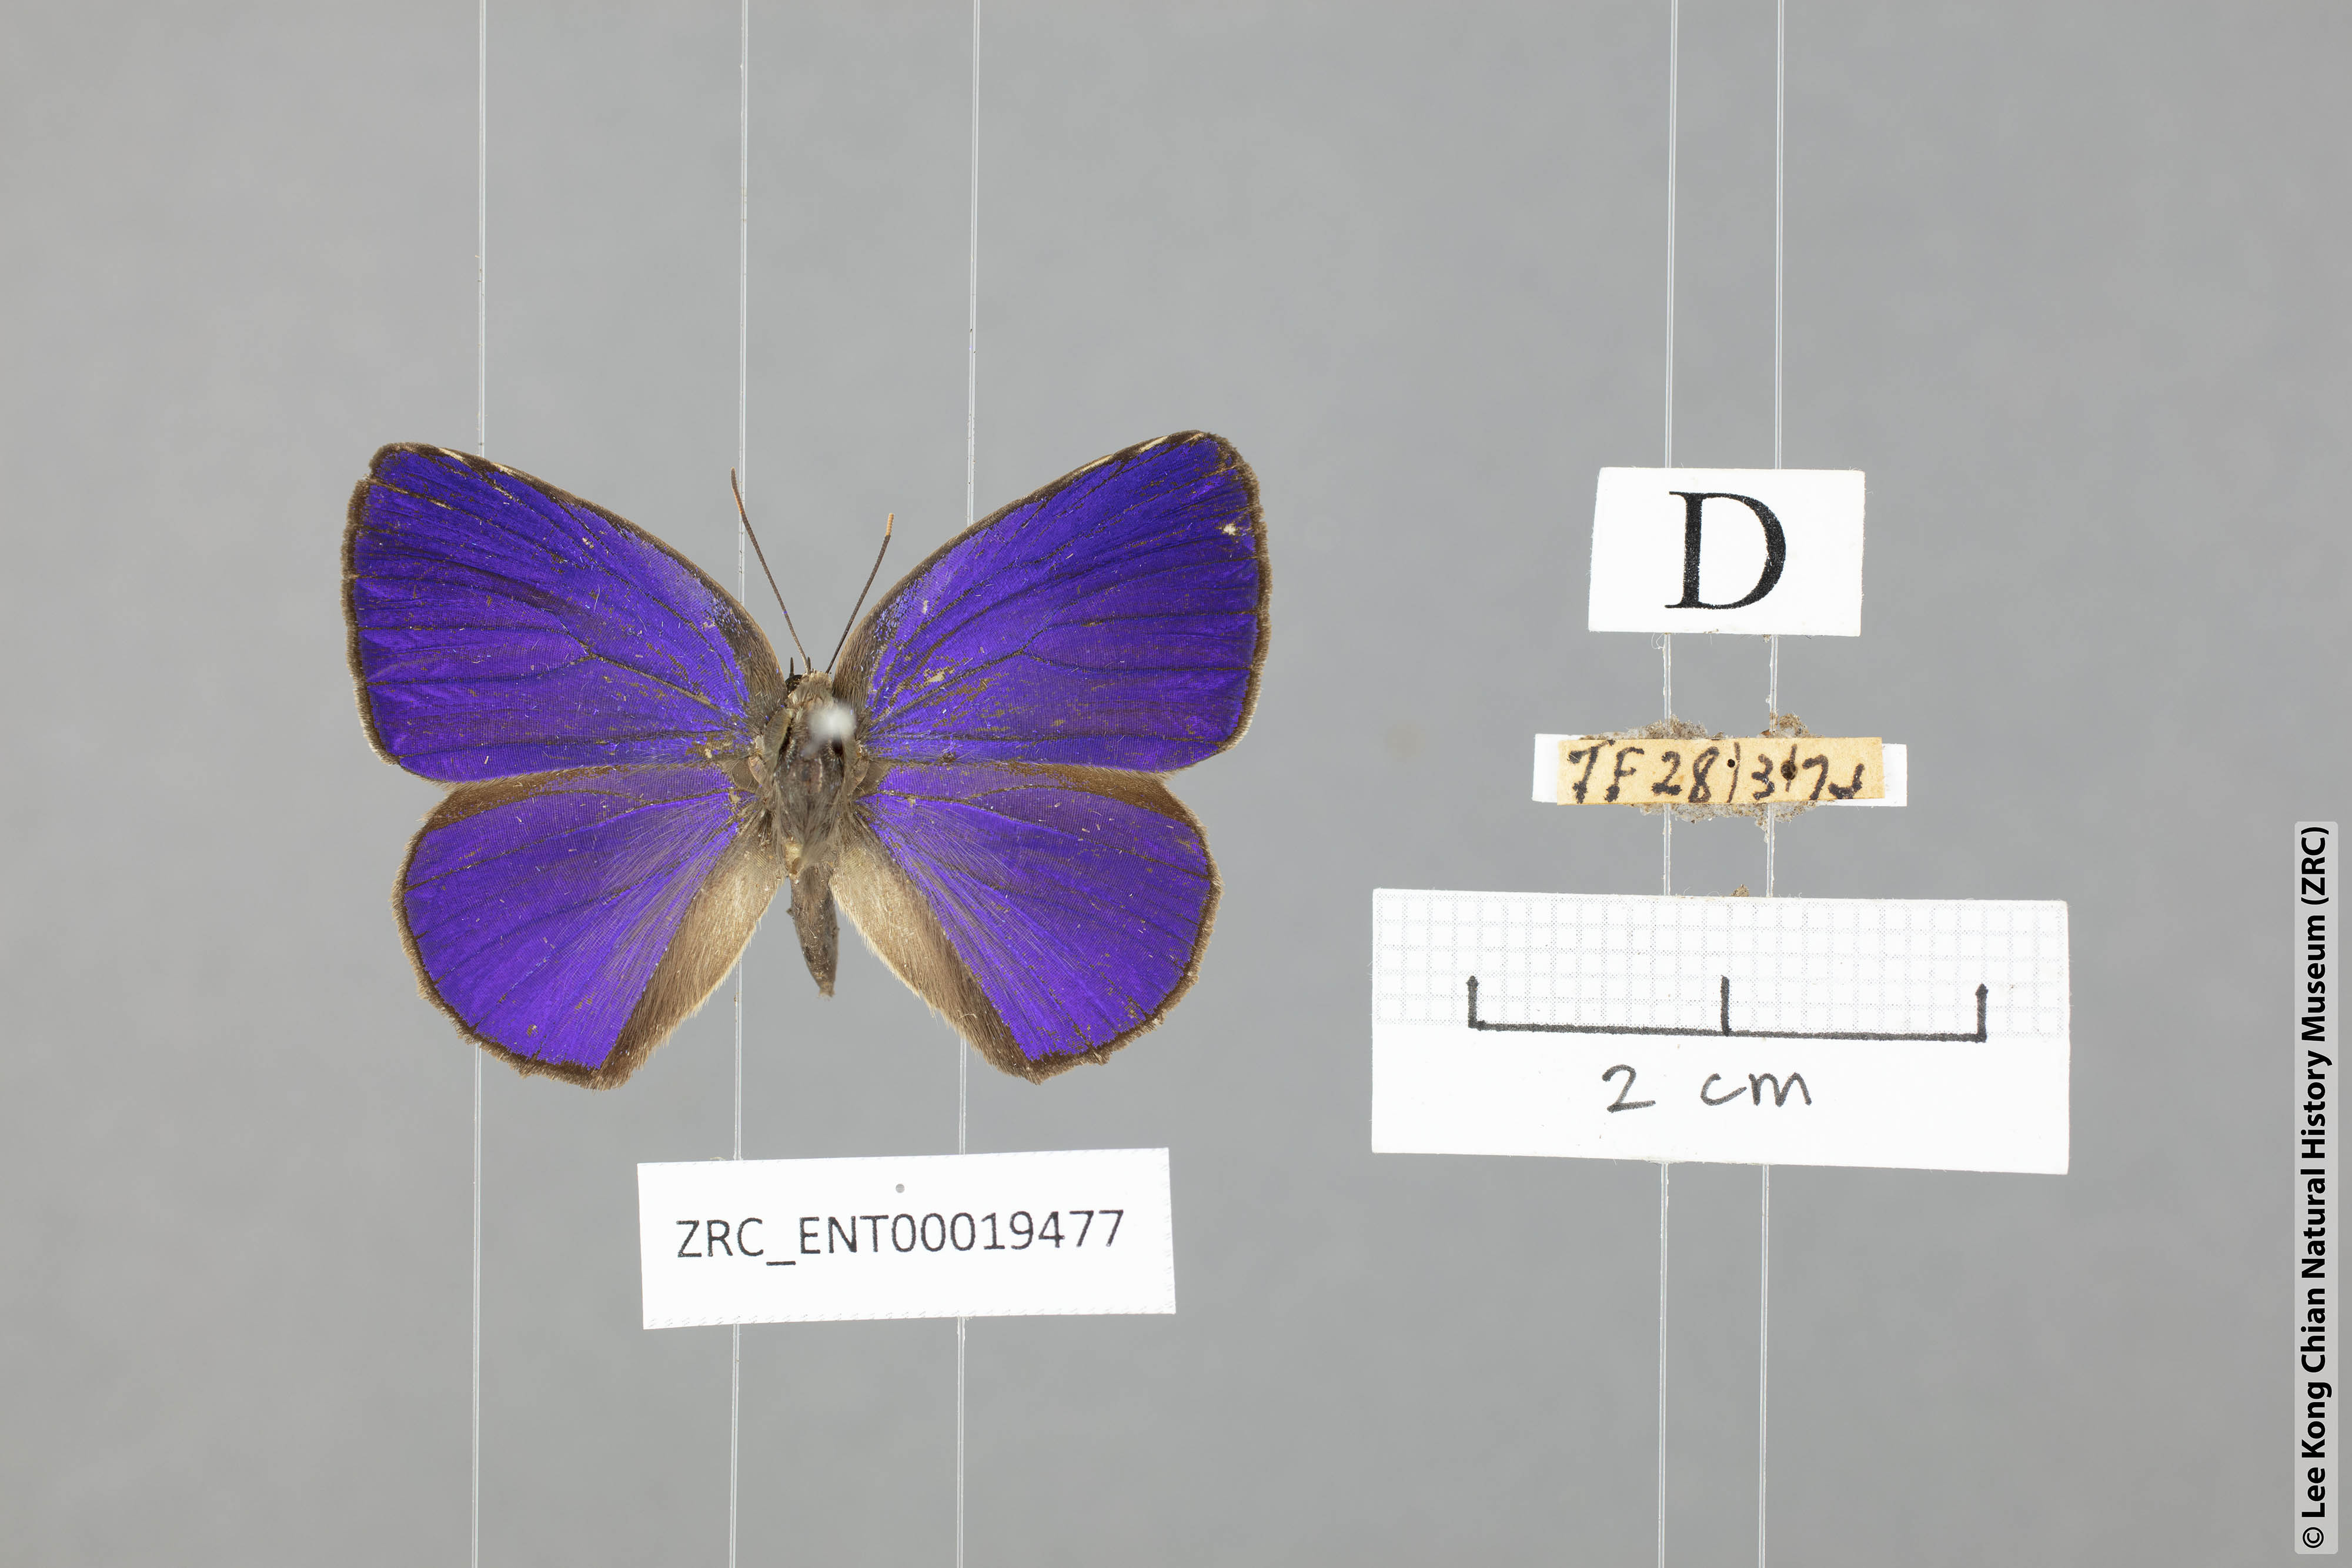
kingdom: Animalia
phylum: Arthropoda
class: Insecta
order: Lepidoptera
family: Lycaenidae
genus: Arhopala
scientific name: Arhopala fulla
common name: Spotless oakblue
